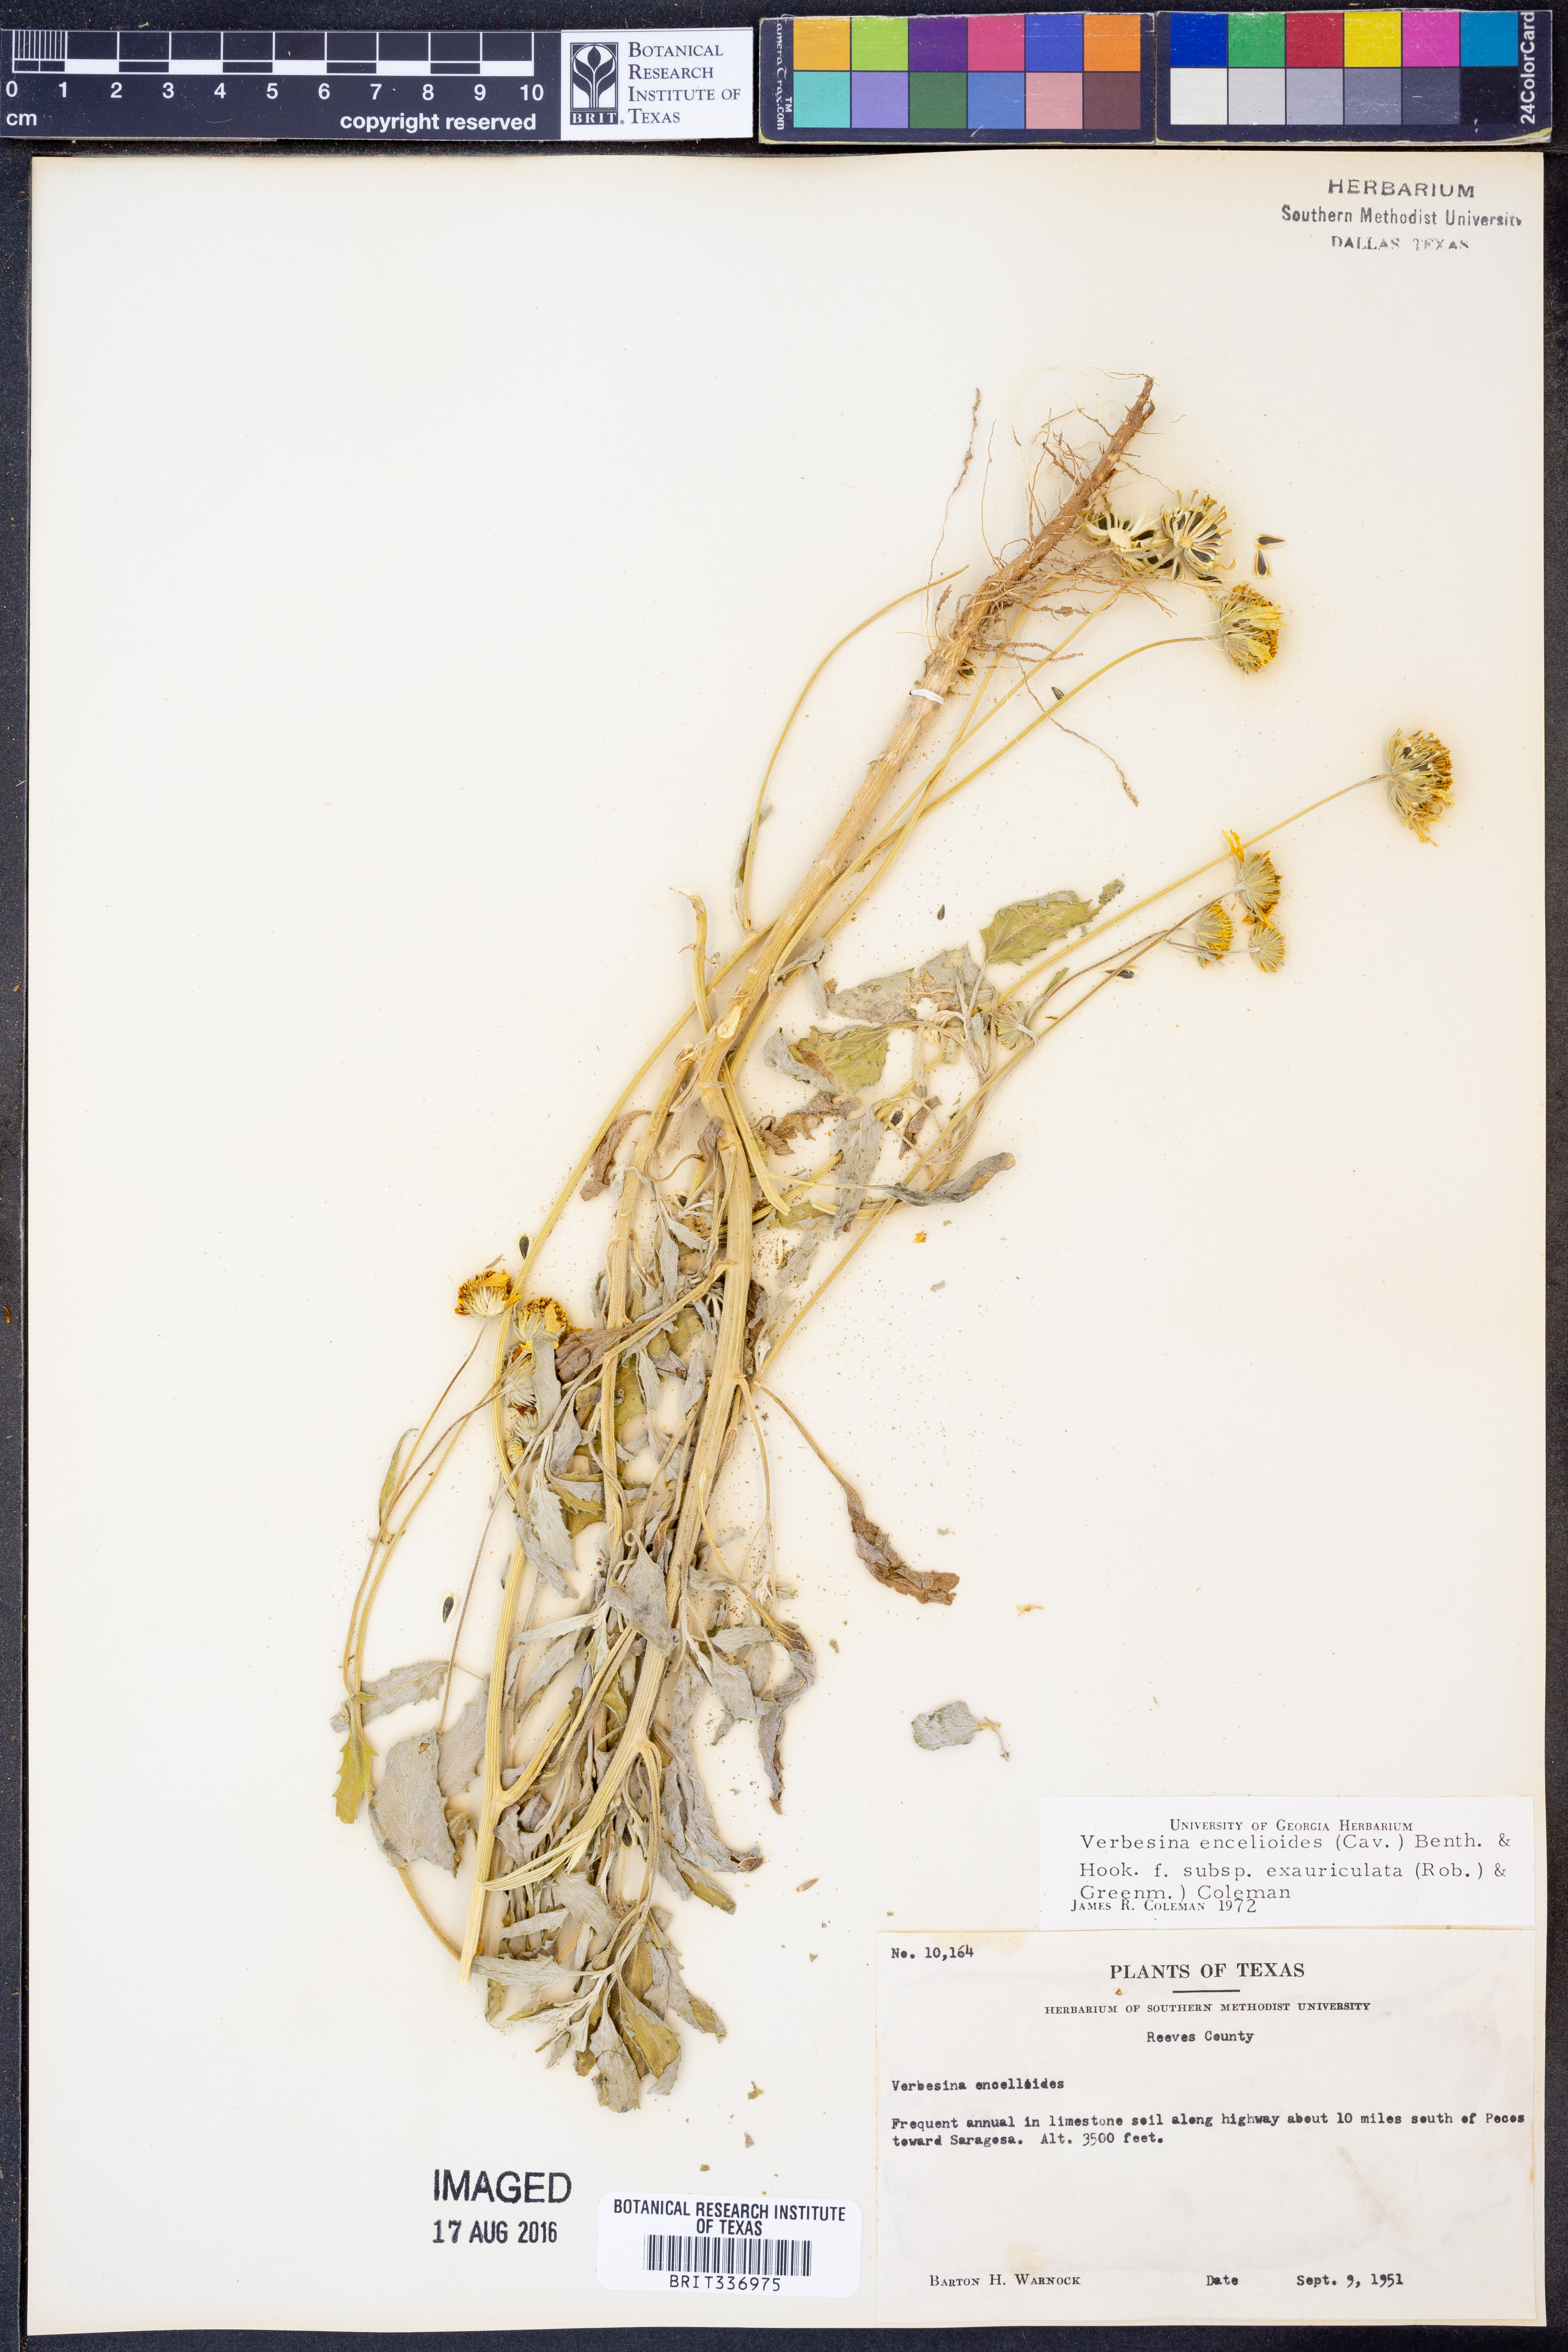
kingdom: Plantae
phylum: Tracheophyta
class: Magnoliopsida
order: Asterales
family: Asteraceae
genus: Verbesina
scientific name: Verbesina encelioides
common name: Golden crownbeard
